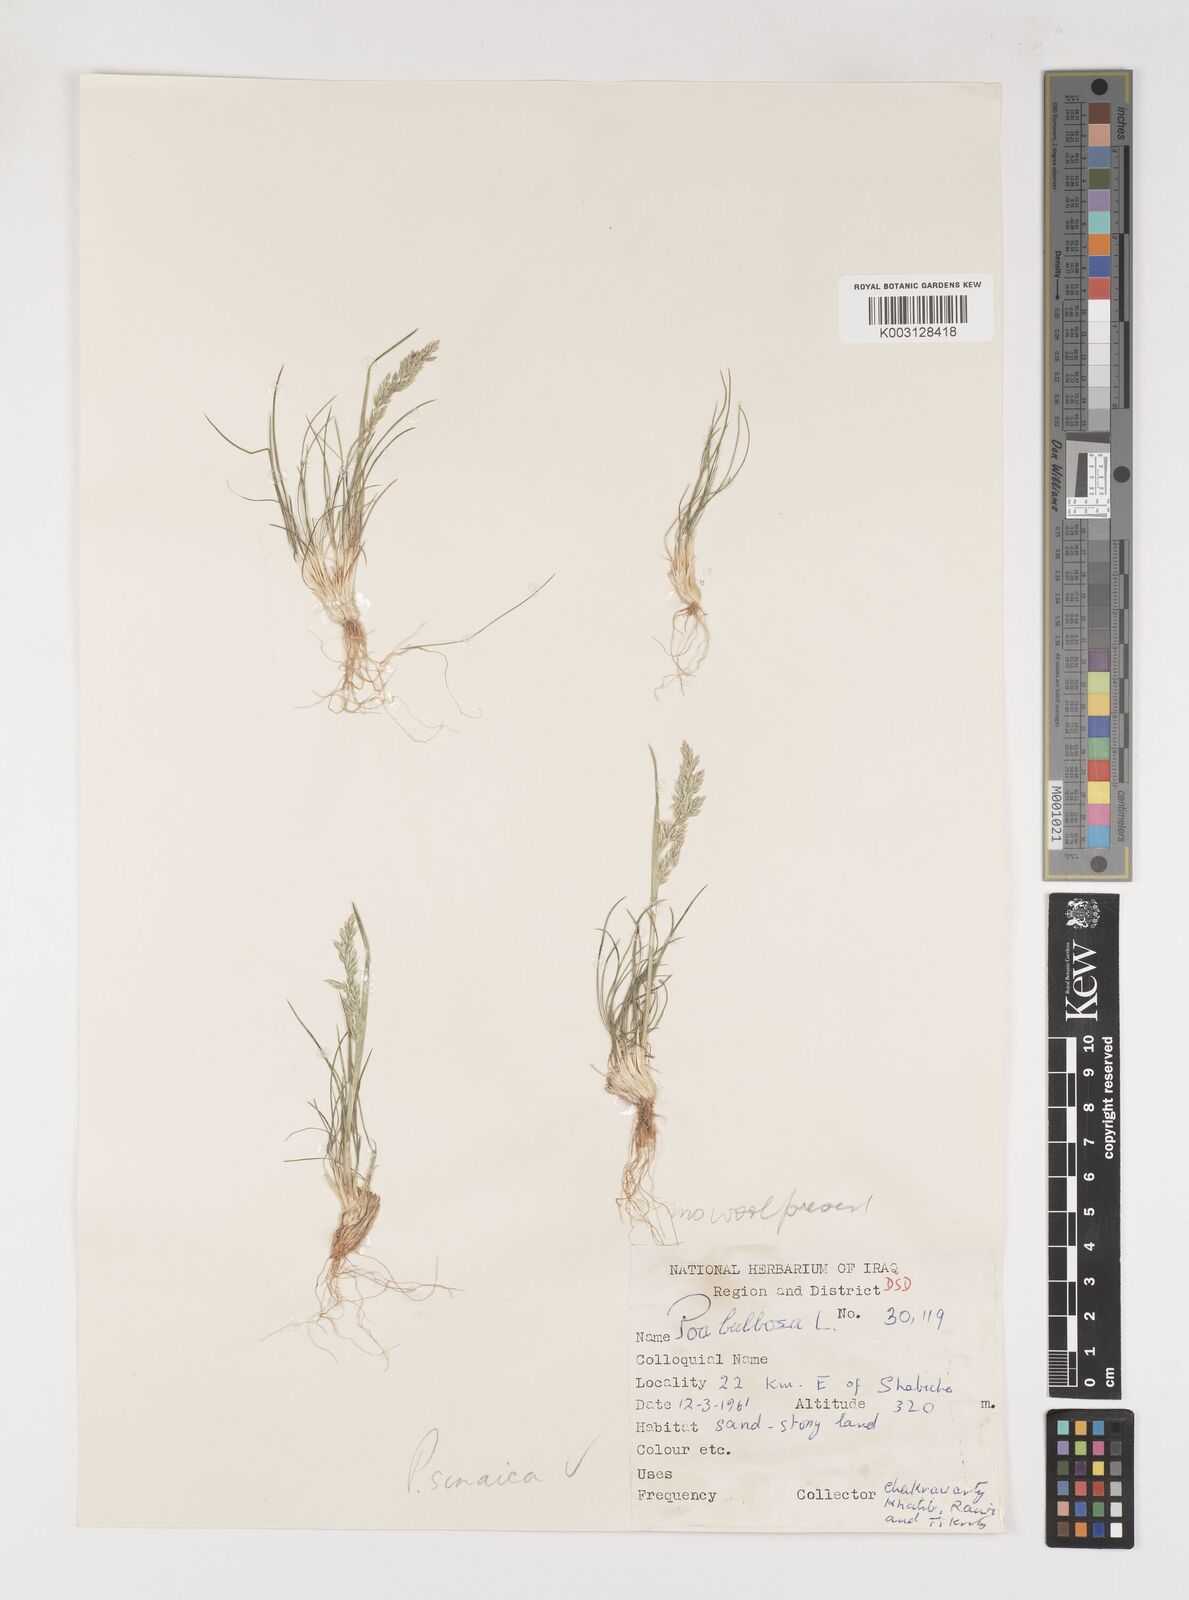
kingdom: Plantae
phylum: Tracheophyta
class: Liliopsida
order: Poales
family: Poaceae
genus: Poa
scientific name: Poa sinaica
